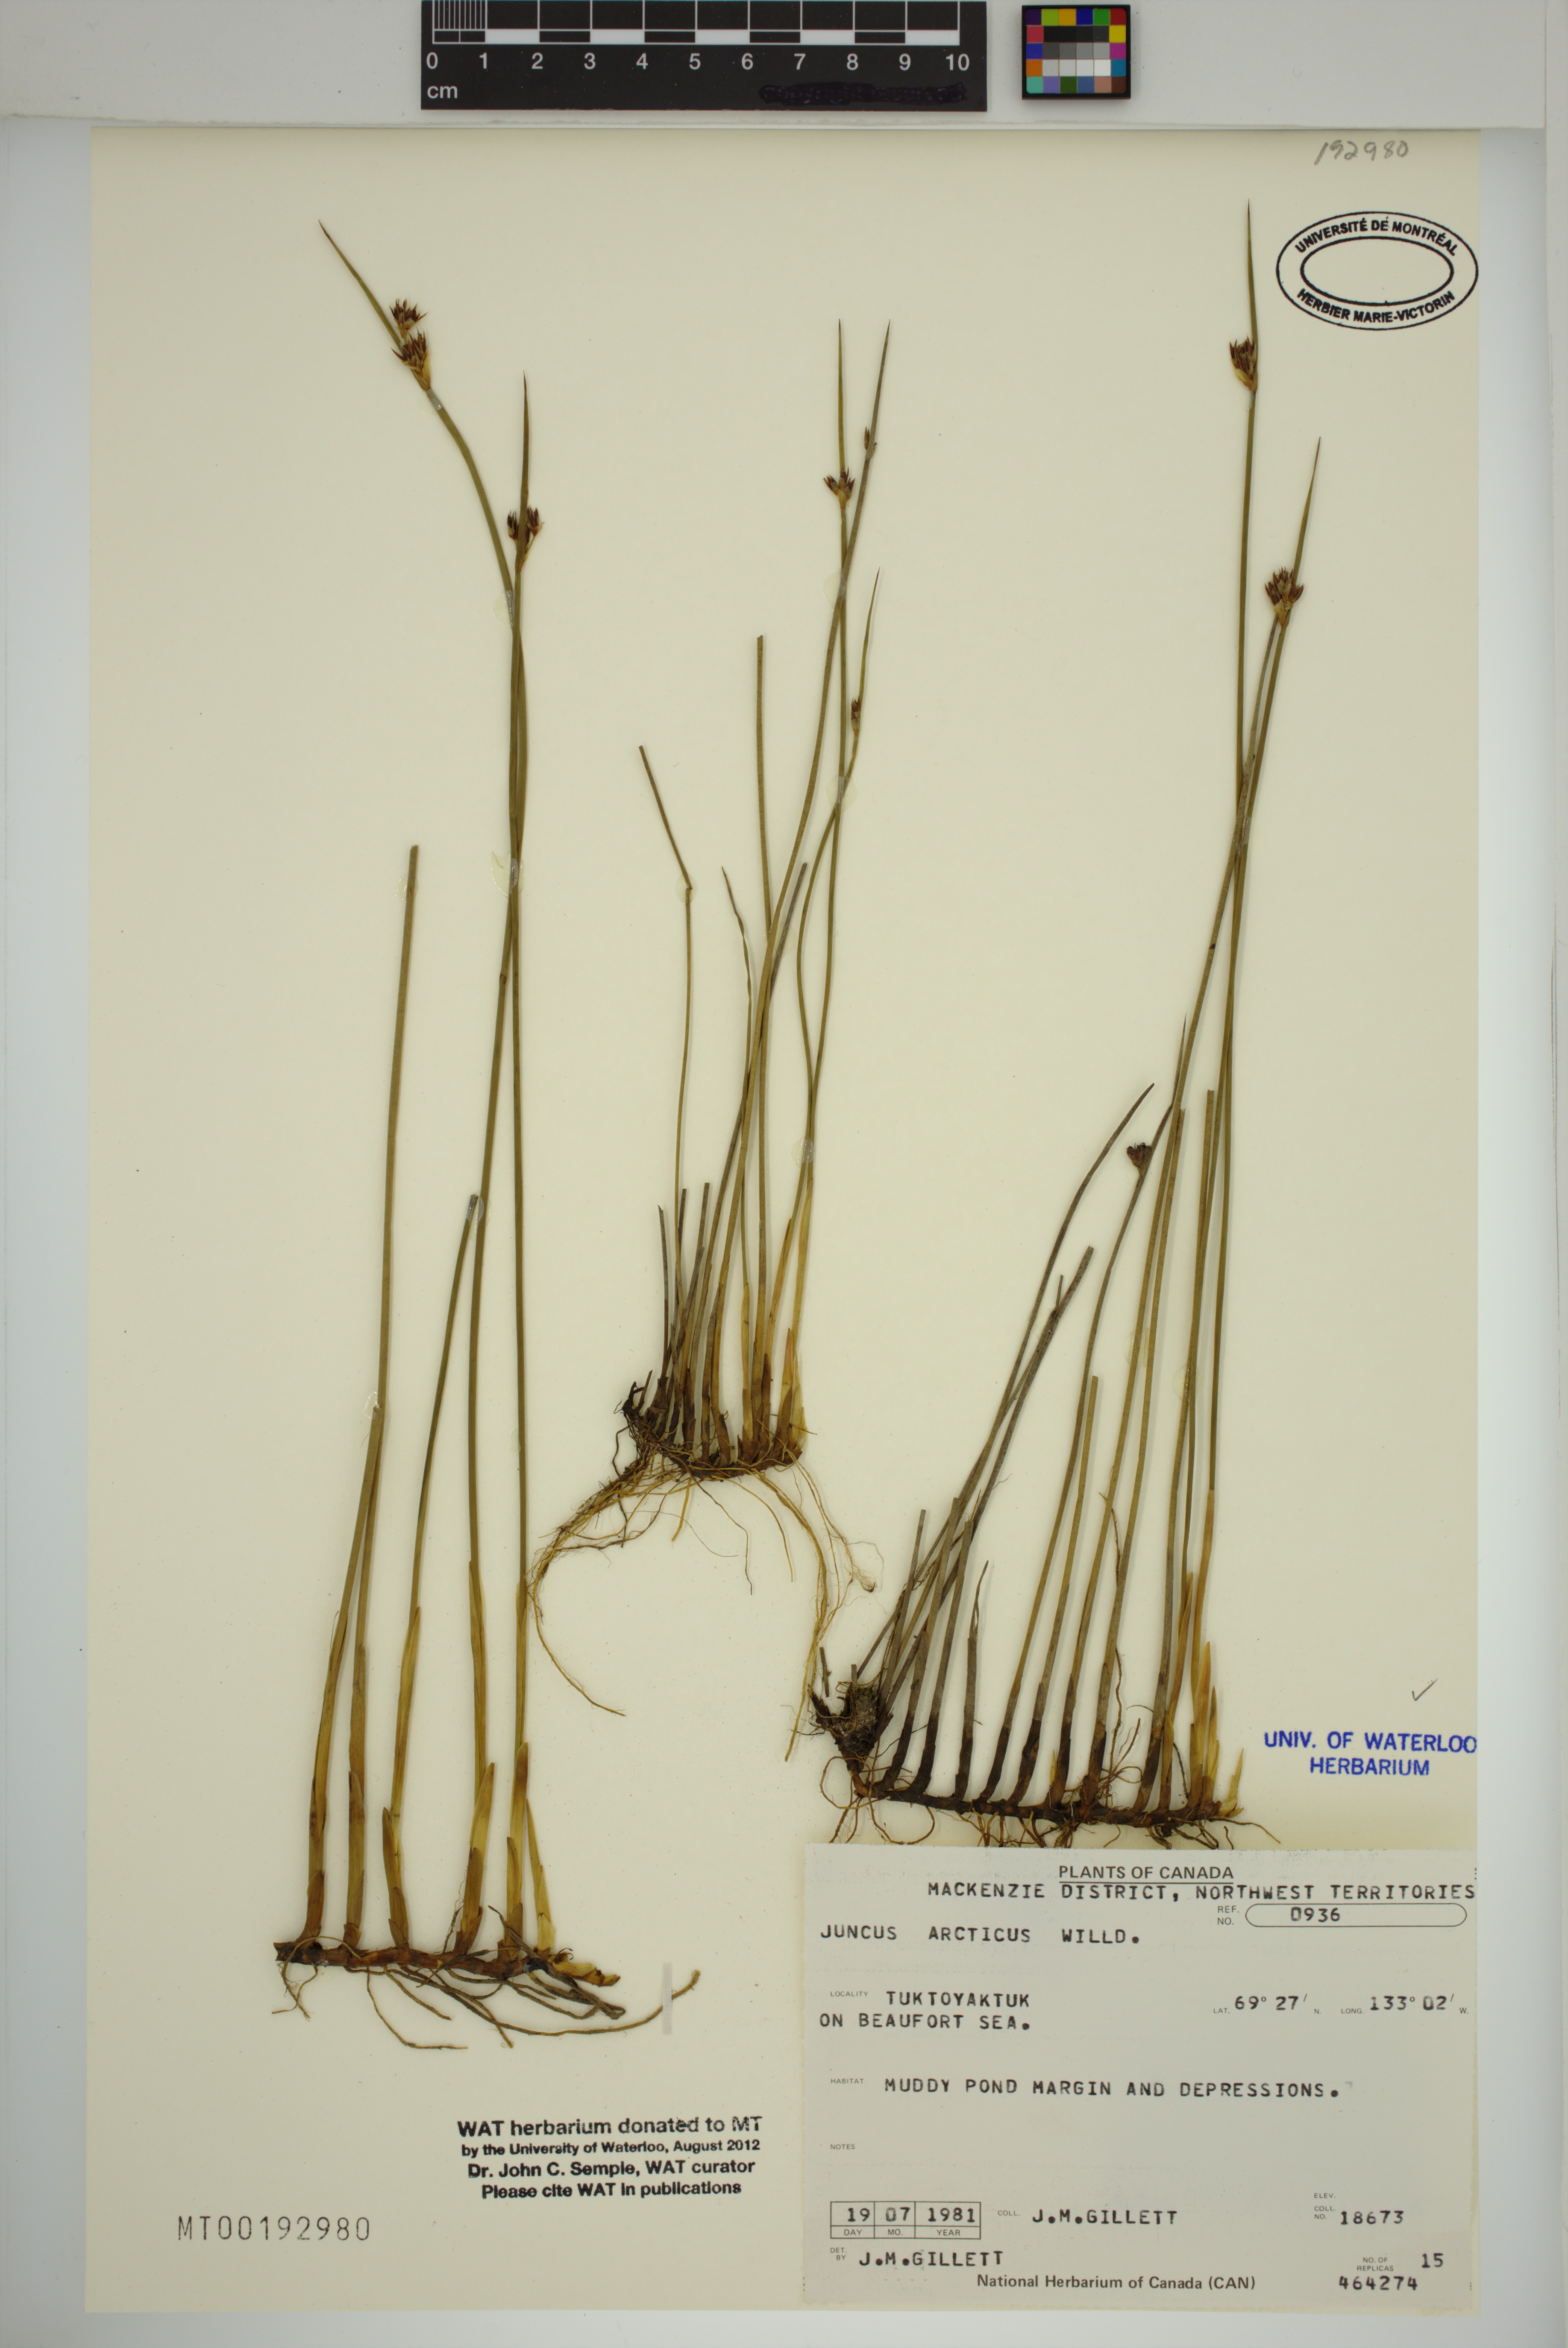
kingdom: Plantae
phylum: Tracheophyta
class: Liliopsida
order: Poales
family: Juncaceae
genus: Juncus
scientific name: Juncus arcticus
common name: Arctic rush
